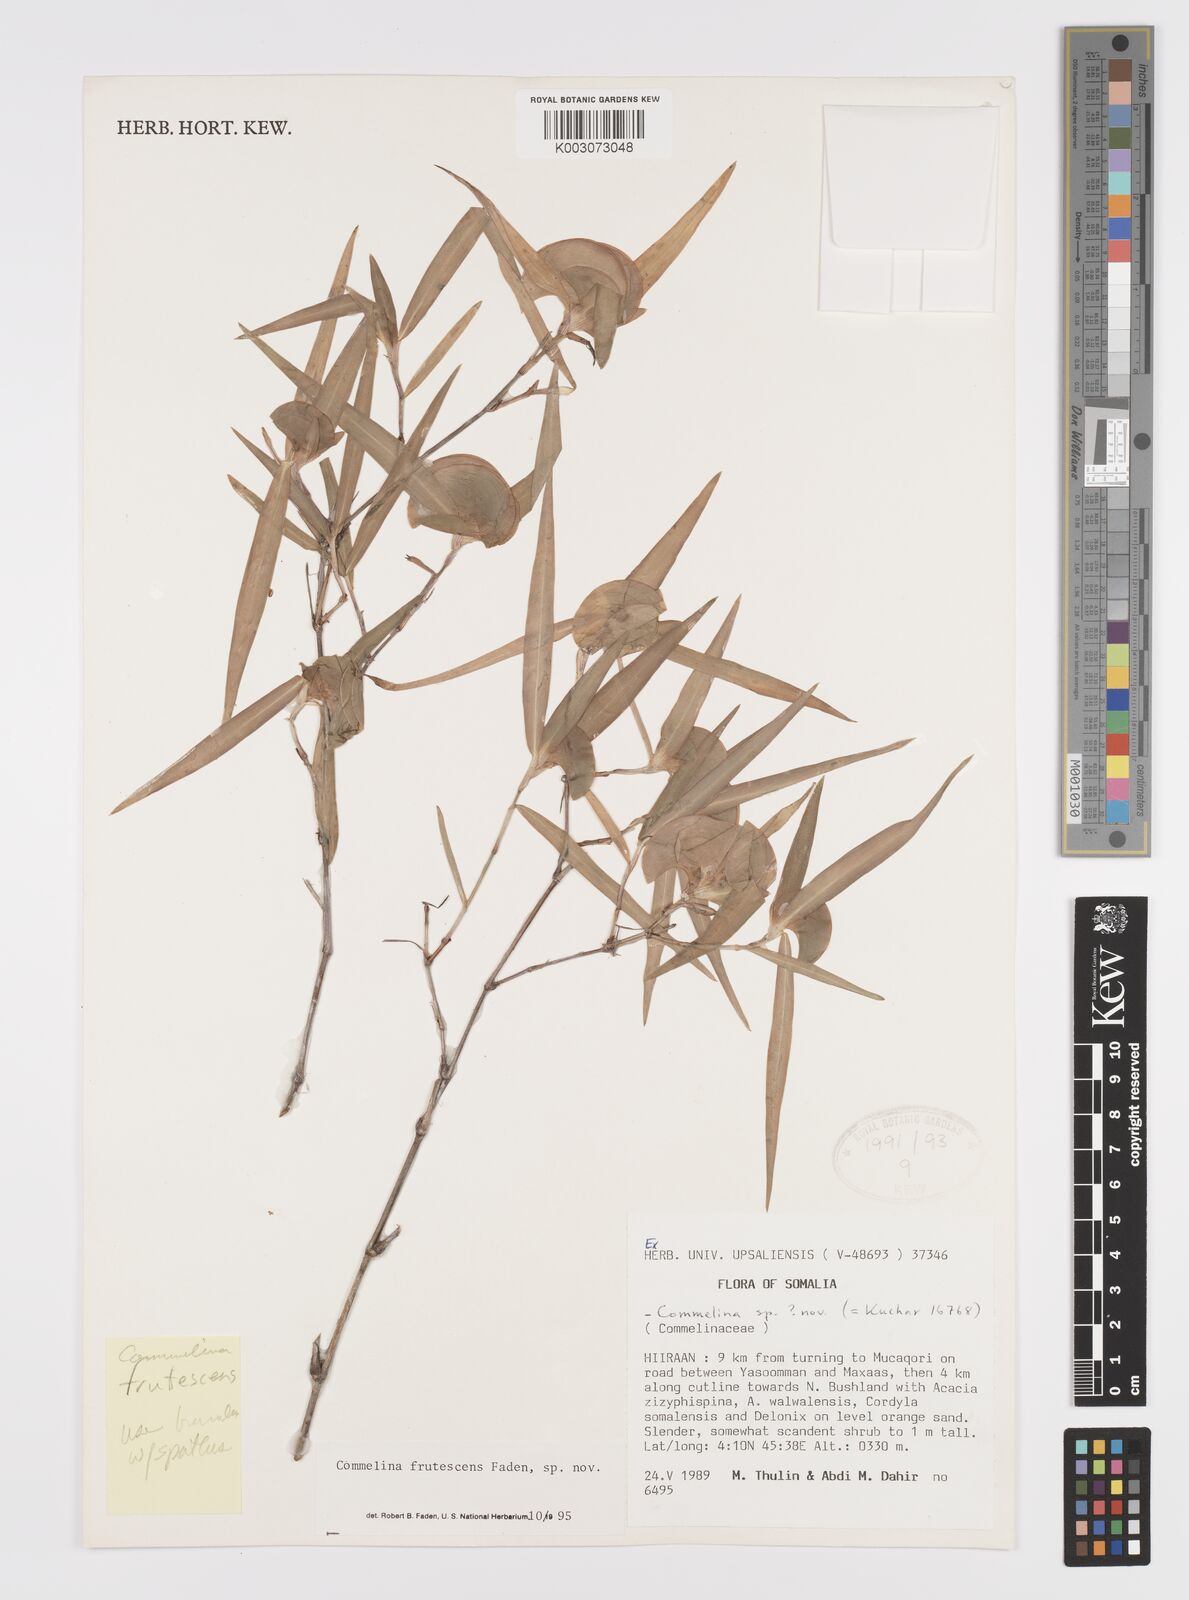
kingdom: Plantae
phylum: Tracheophyta
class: Liliopsida
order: Commelinales
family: Commelinaceae
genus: Commelina
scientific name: Commelina frutescens
